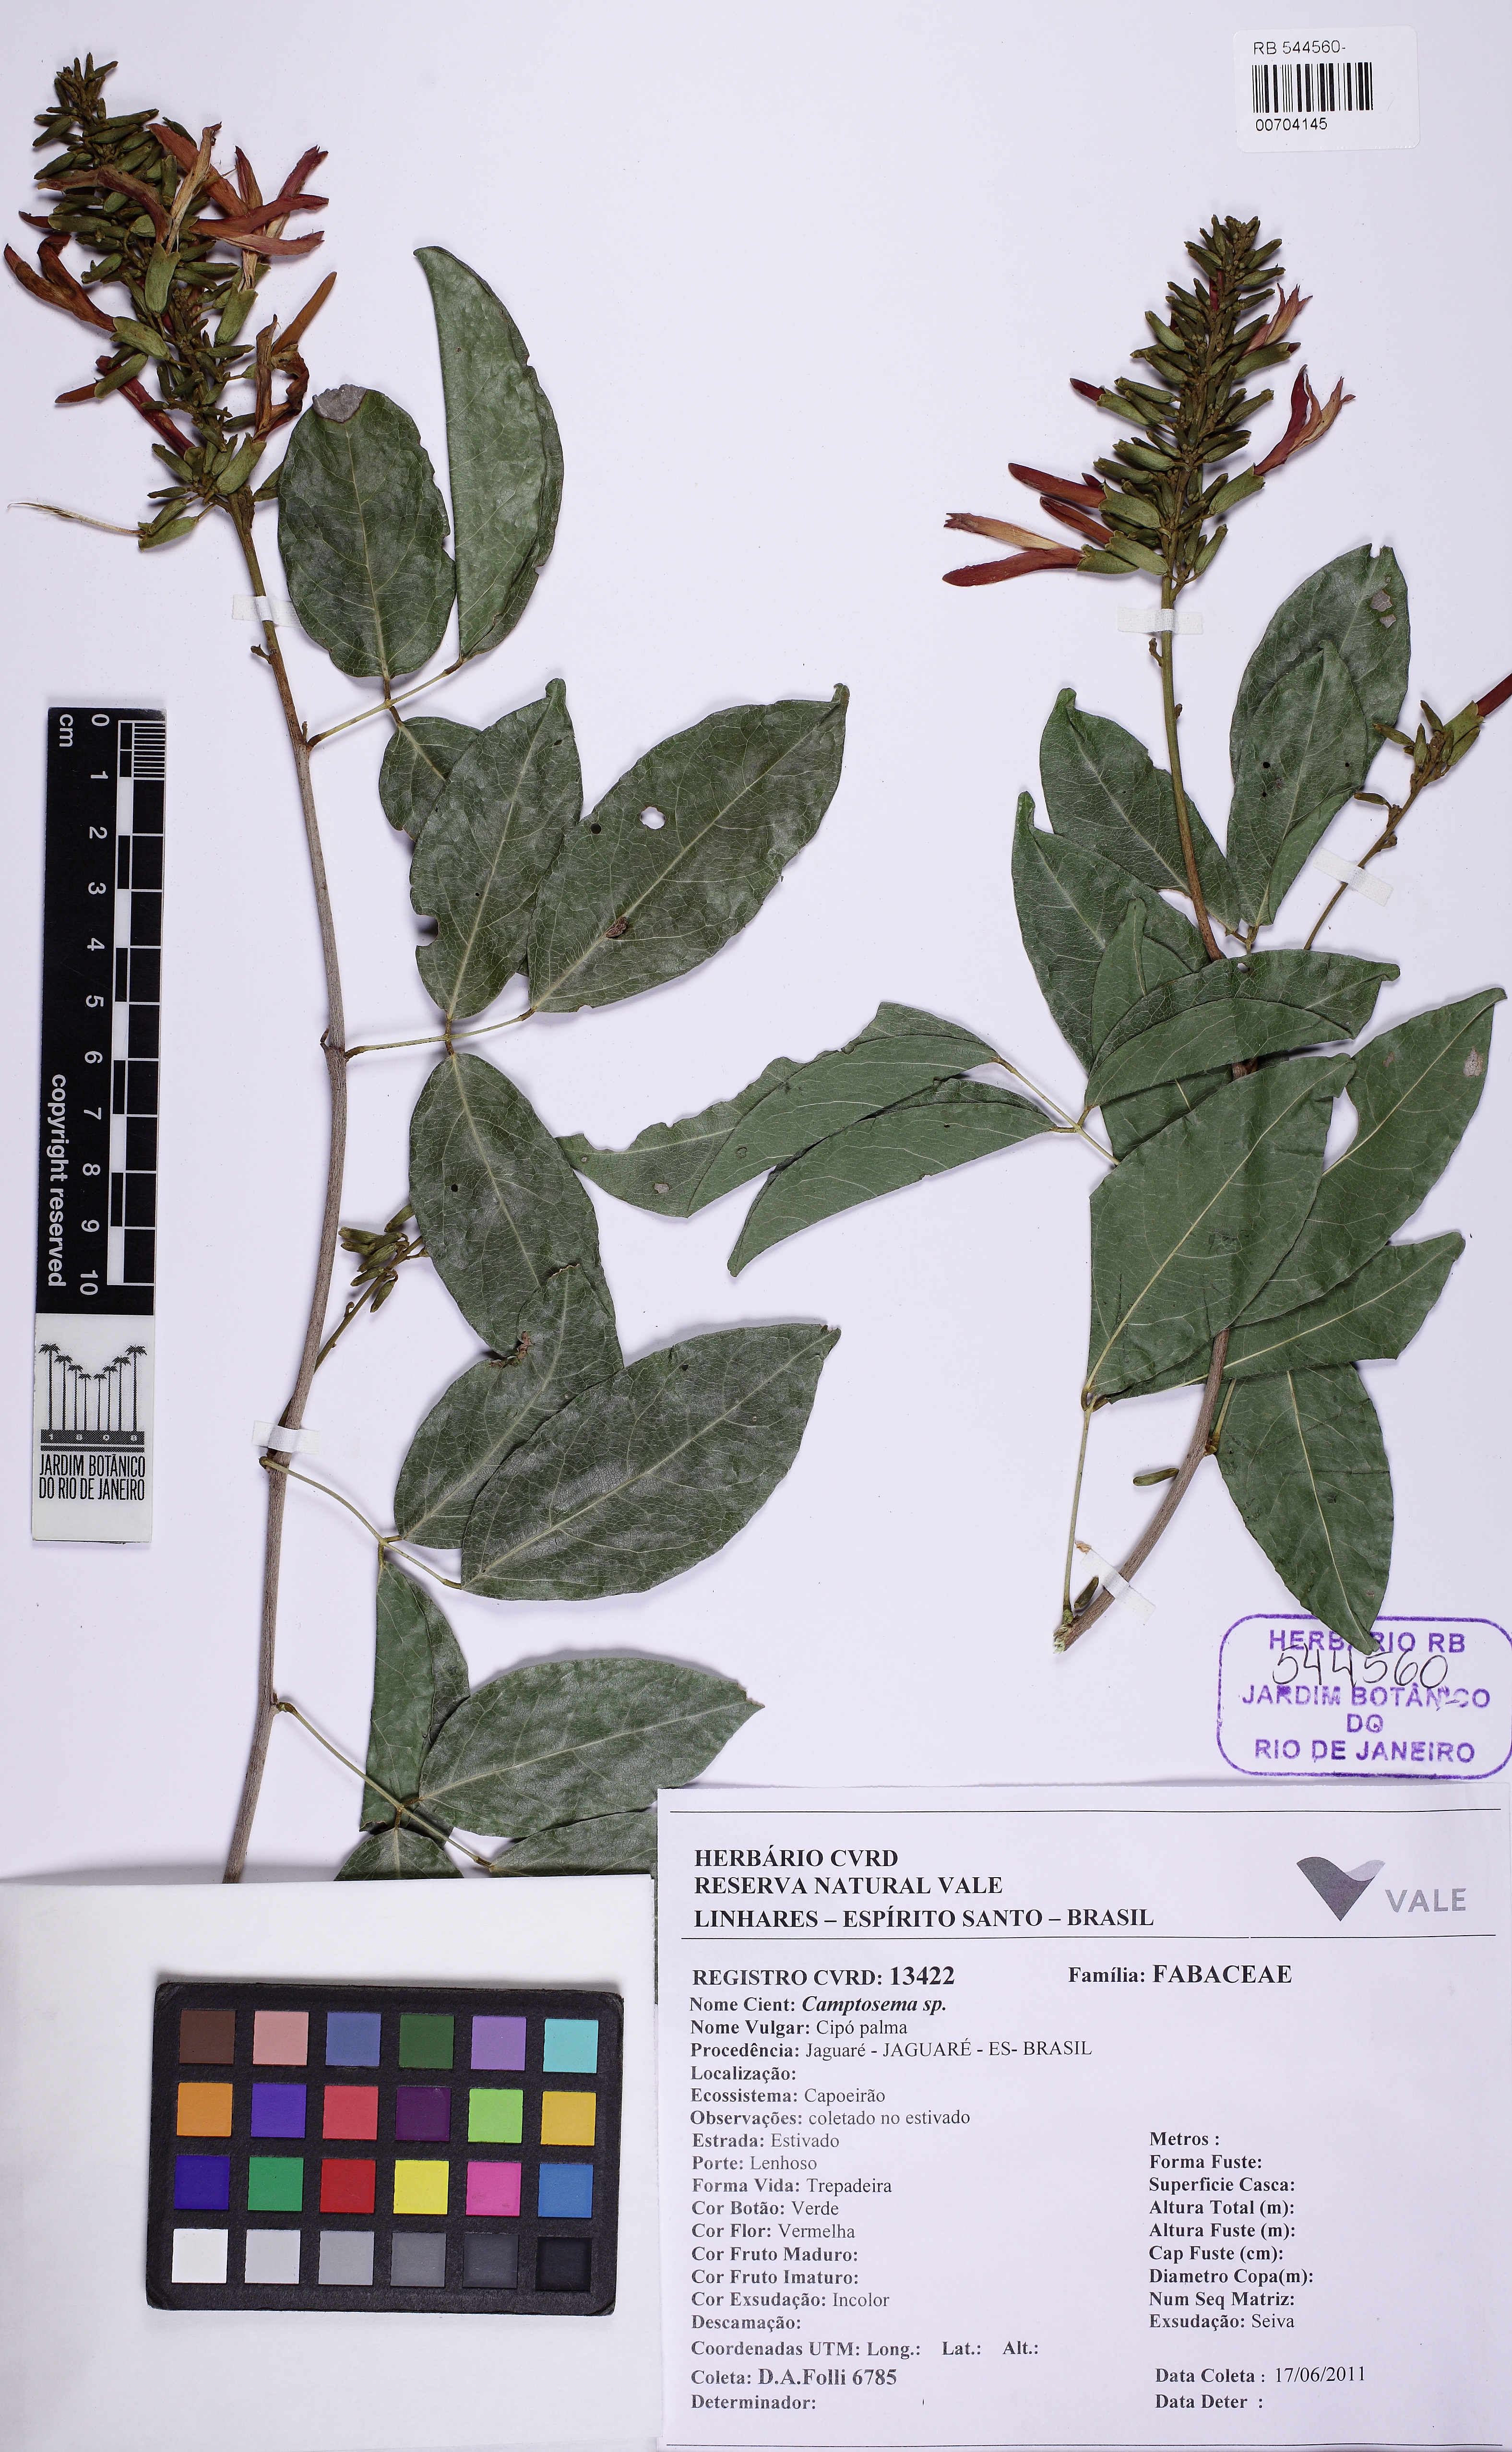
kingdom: Plantae
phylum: Tracheophyta
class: Magnoliopsida
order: Fabales
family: Fabaceae
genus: Camptosema
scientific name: Camptosema
